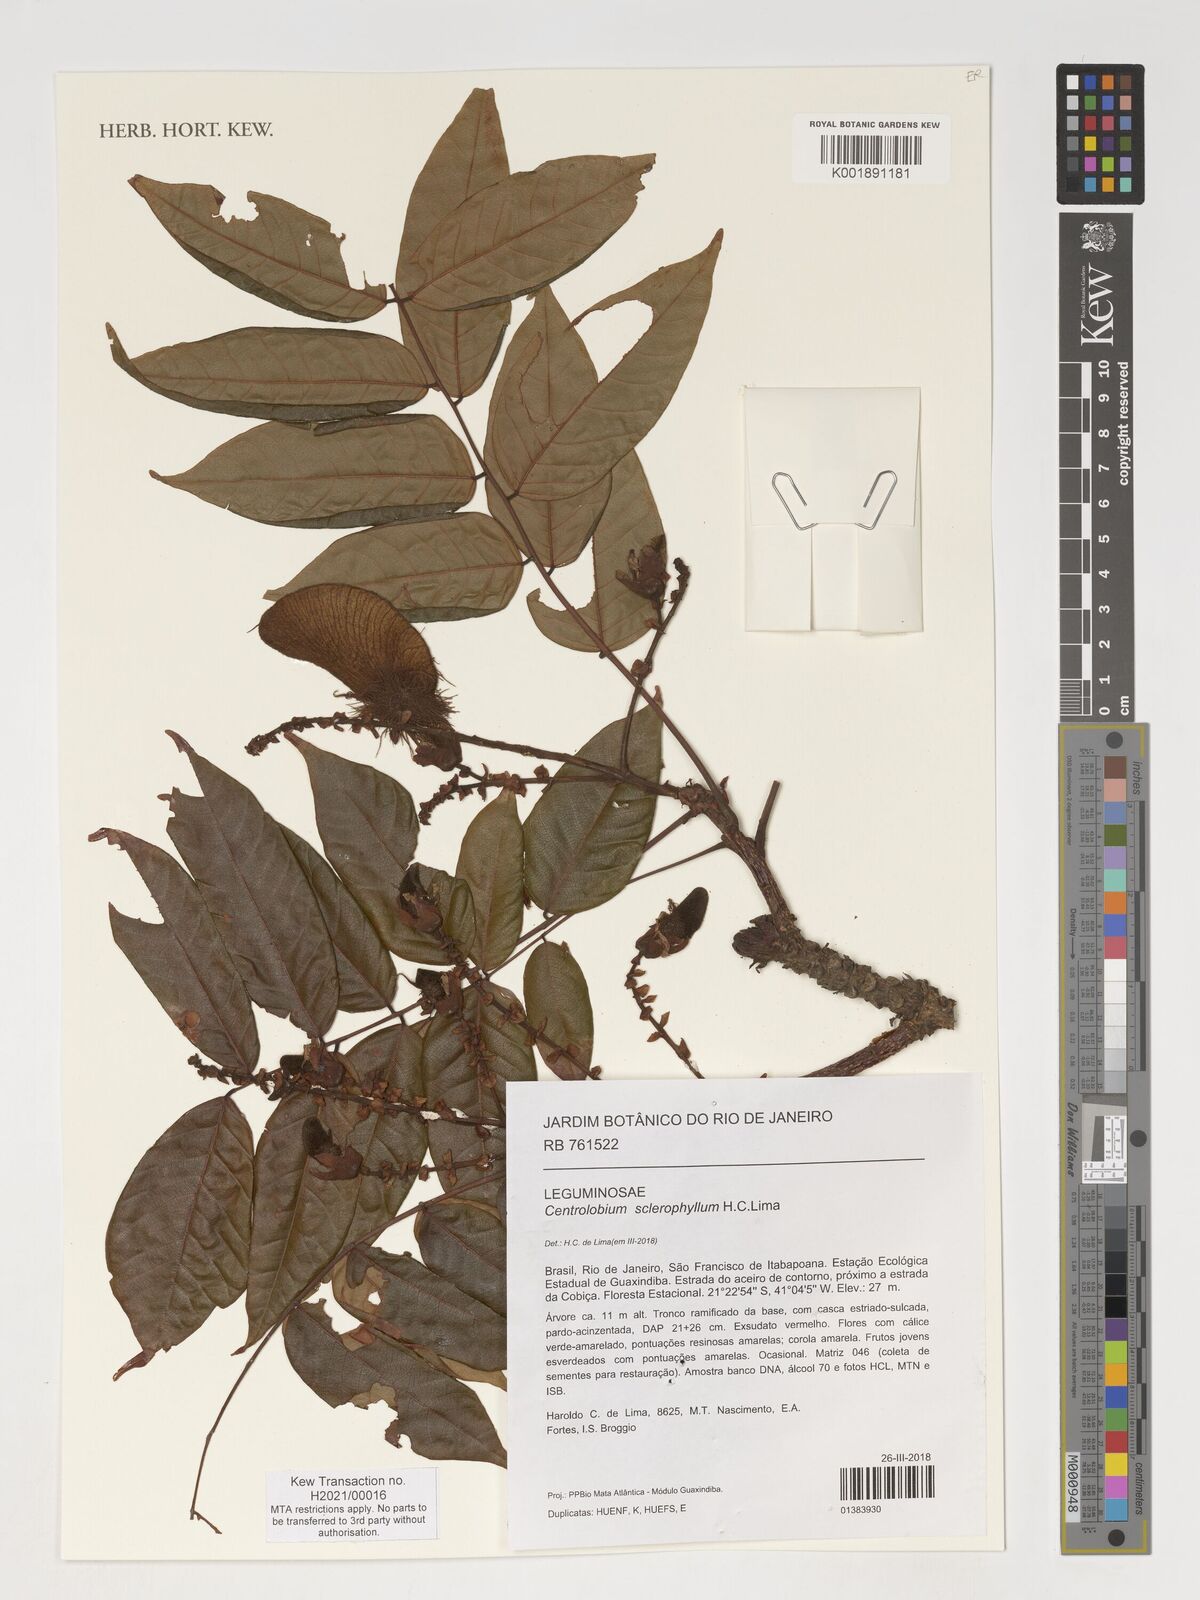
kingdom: Plantae
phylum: Tracheophyta
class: Magnoliopsida
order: Fabales
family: Fabaceae
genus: Centrolobium
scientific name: Centrolobium sclerophyllum
